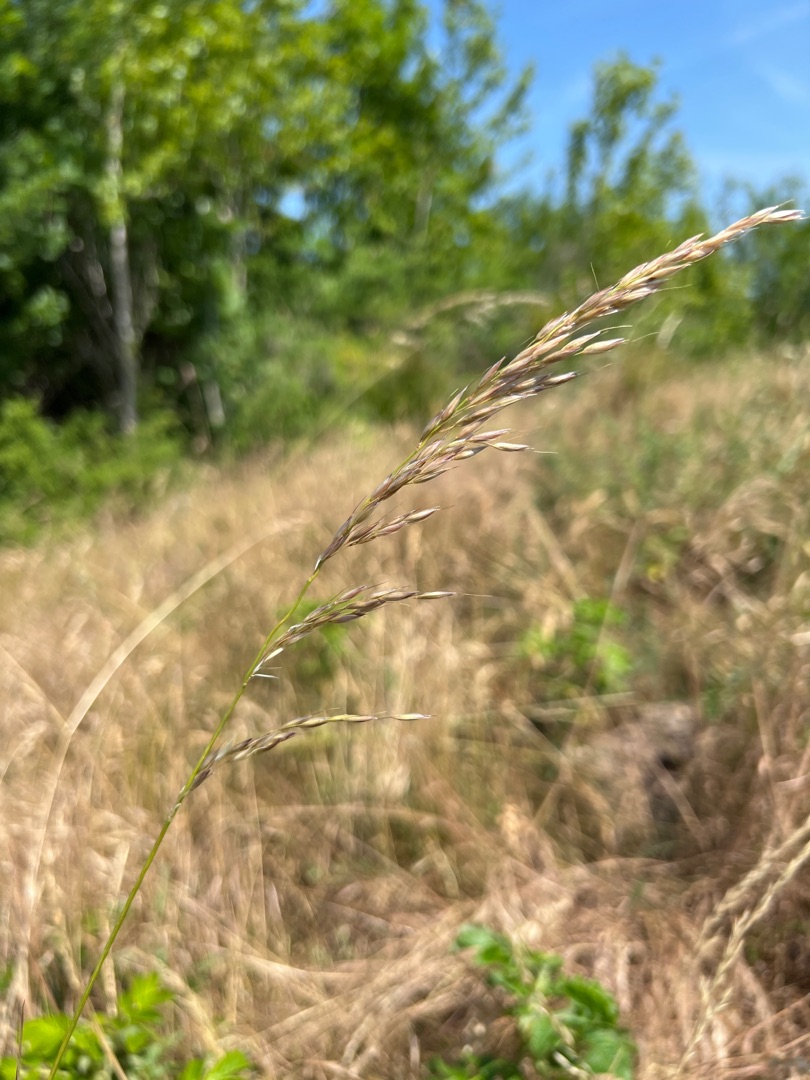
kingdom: Plantae
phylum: Tracheophyta
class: Liliopsida
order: Poales
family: Poaceae
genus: Arrhenatherum
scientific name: Arrhenatherum elatius
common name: Draphavre
